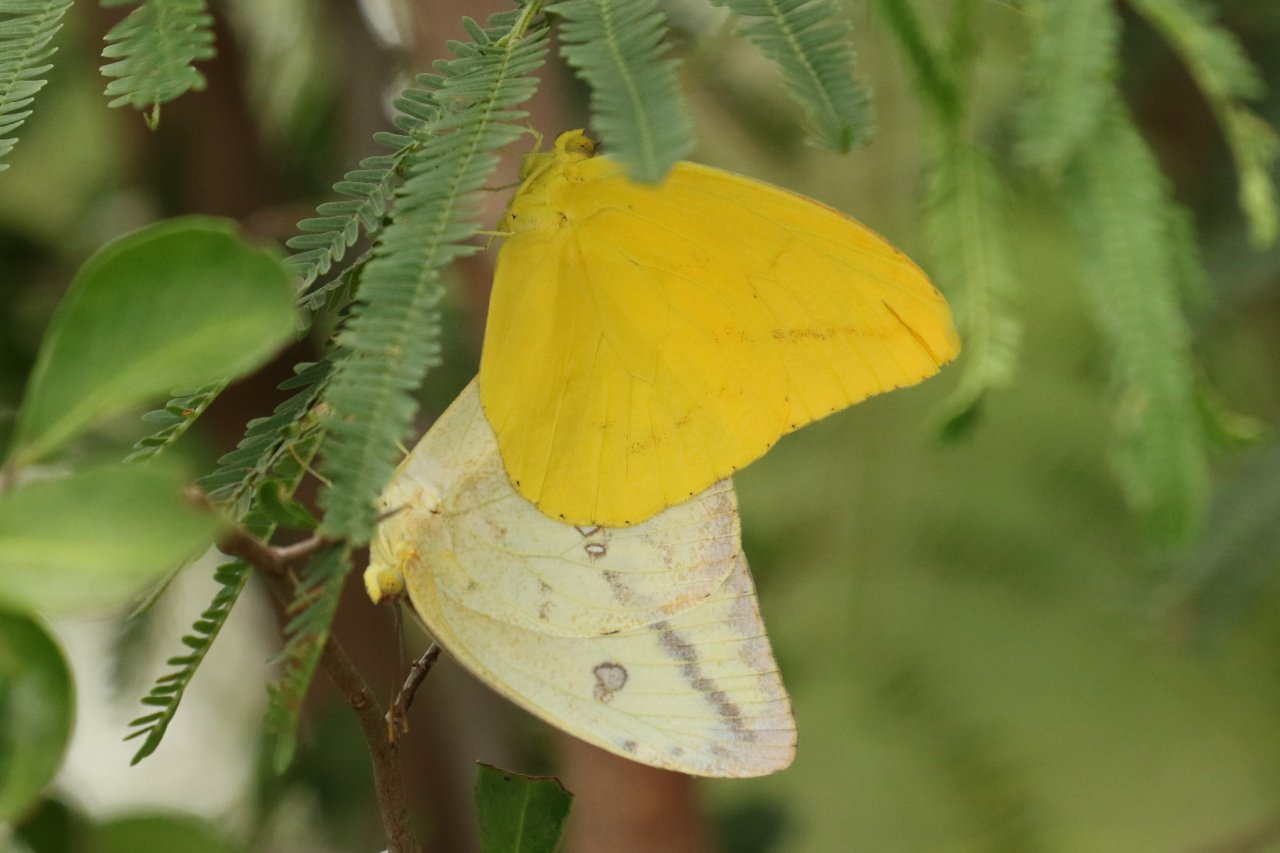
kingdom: Animalia
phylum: Arthropoda
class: Insecta
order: Lepidoptera
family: Pieridae
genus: Phoebis
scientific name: Phoebis agarithe
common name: Large Orange Sulphur
